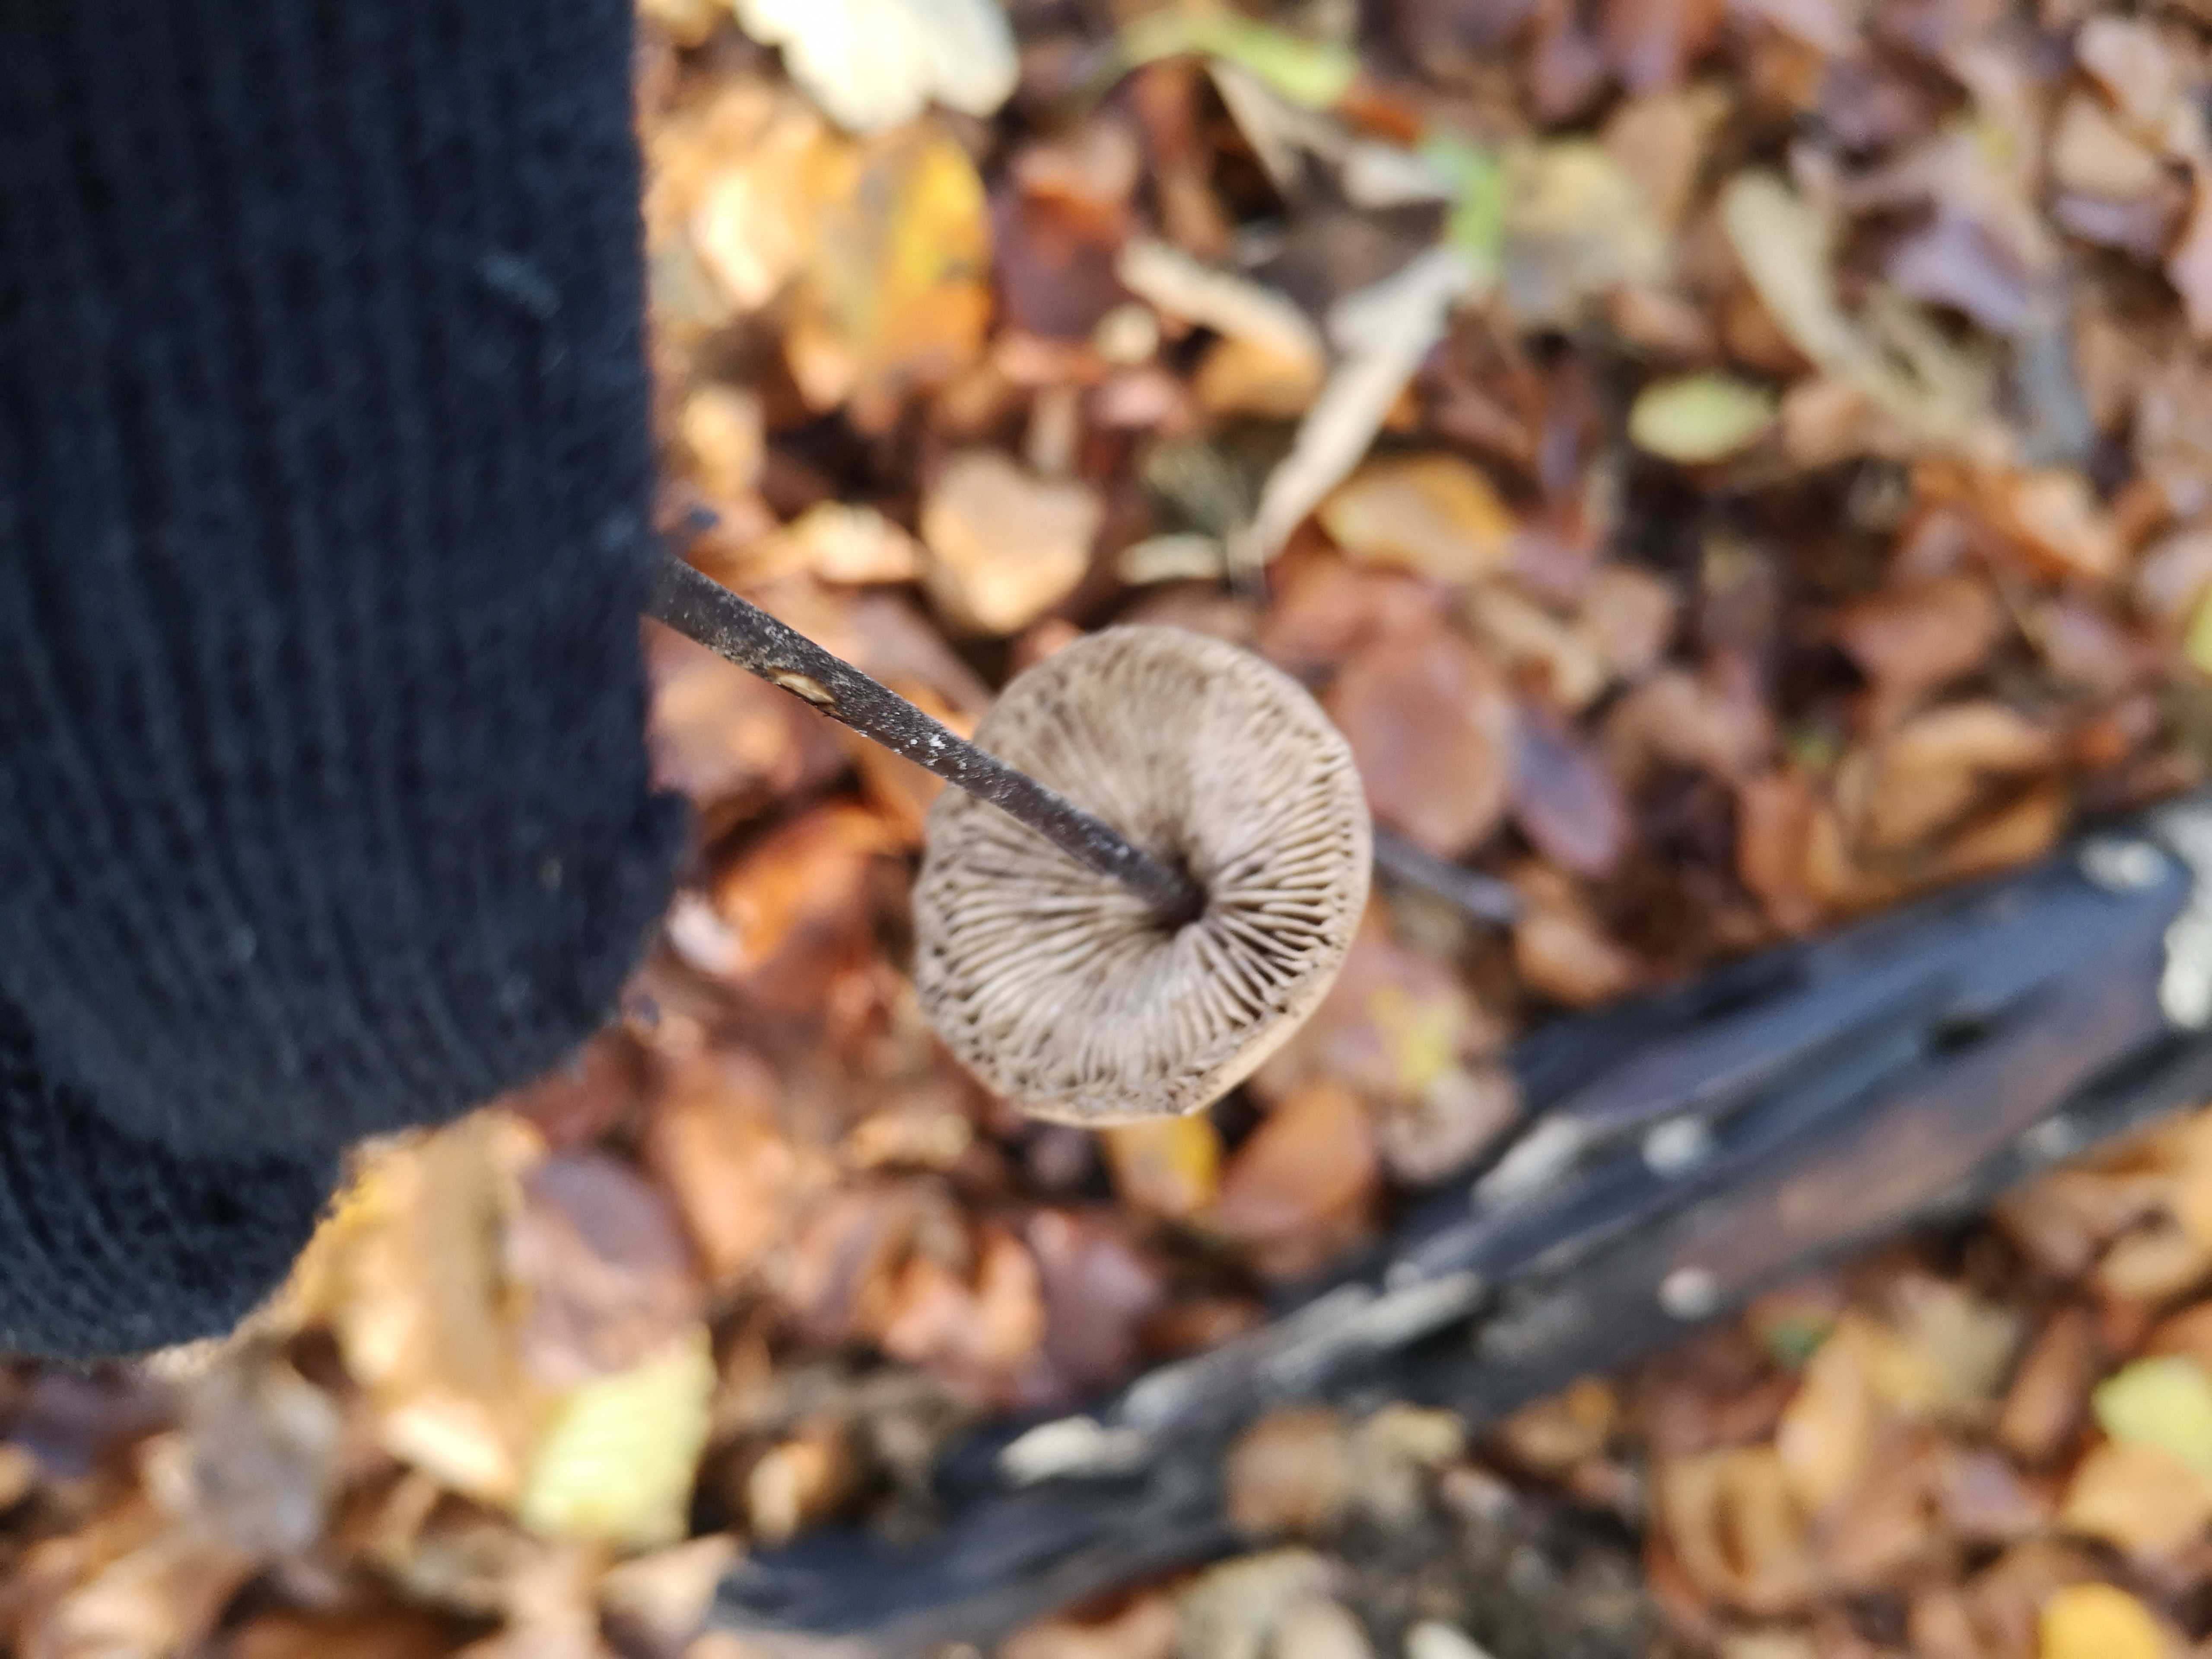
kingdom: Fungi
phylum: Basidiomycota
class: Agaricomycetes
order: Agaricales
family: Omphalotaceae
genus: Mycetinis
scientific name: Mycetinis alliaceus
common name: stor løghat
